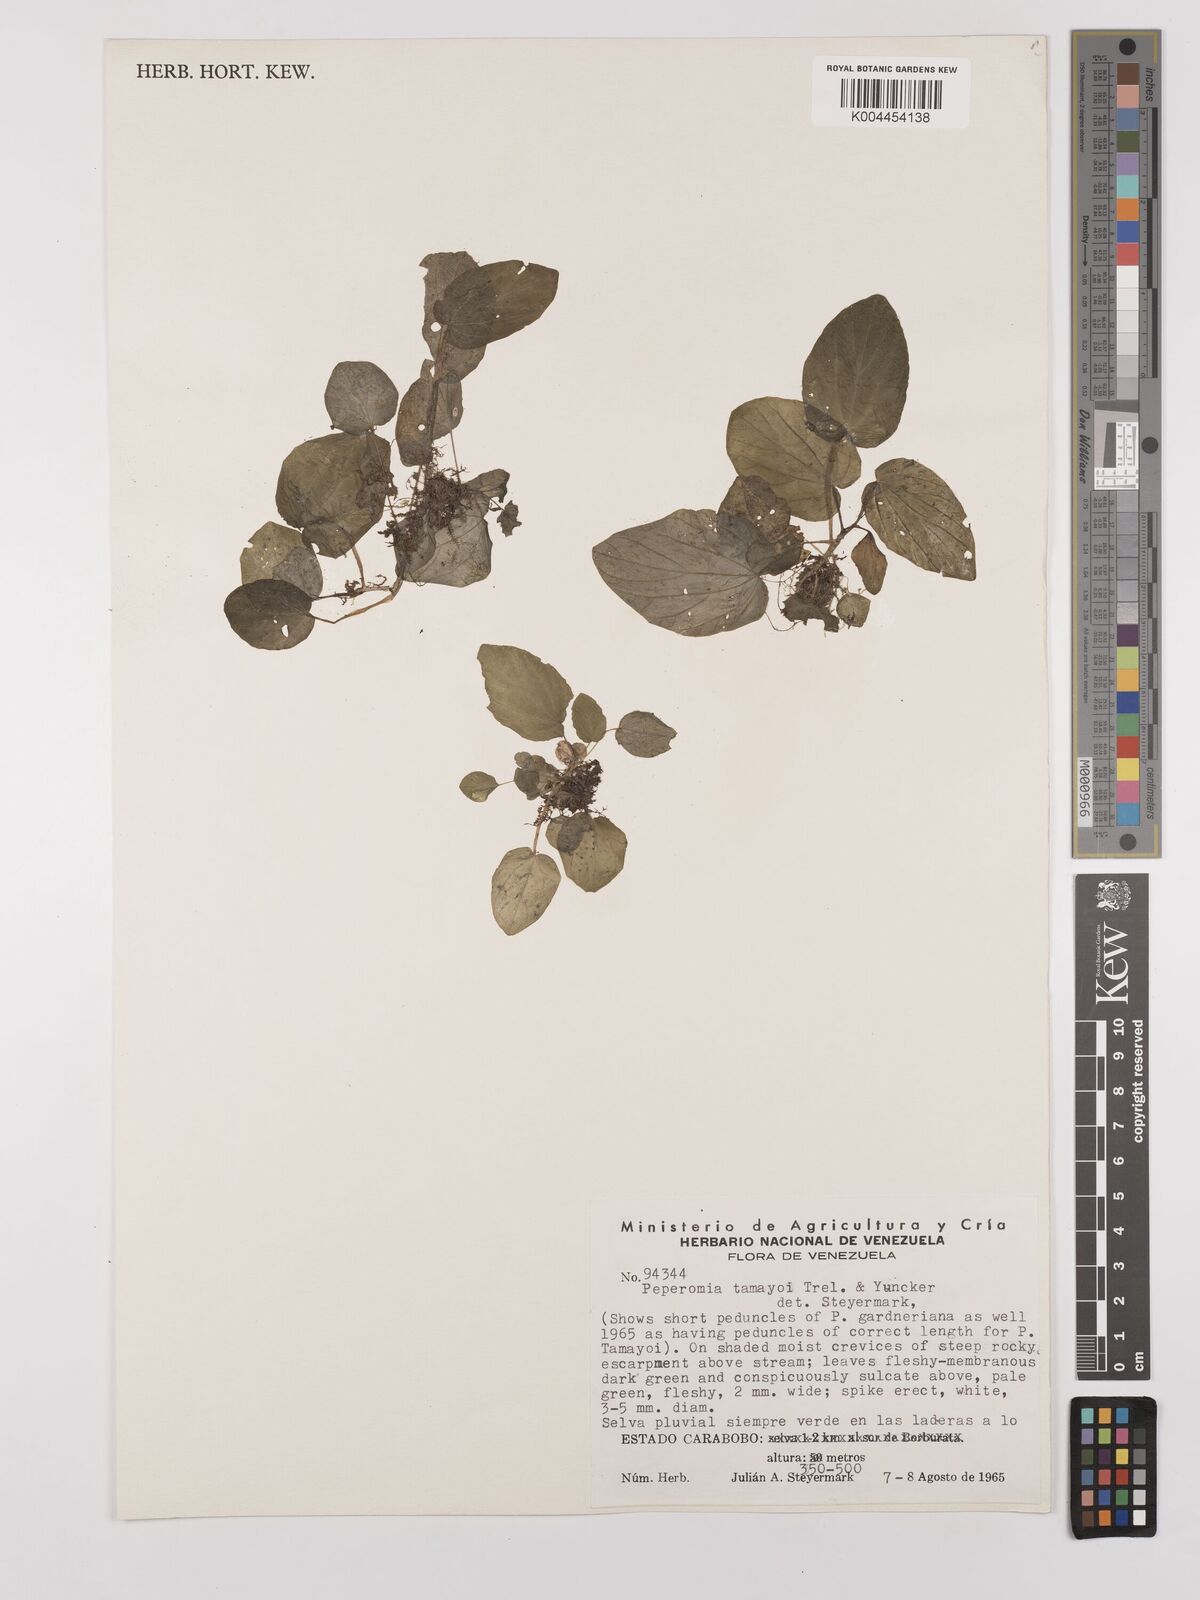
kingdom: Plantae
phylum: Tracheophyta
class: Magnoliopsida
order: Piperales
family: Piperaceae
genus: Peperomia
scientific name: Peperomia tamayoi
